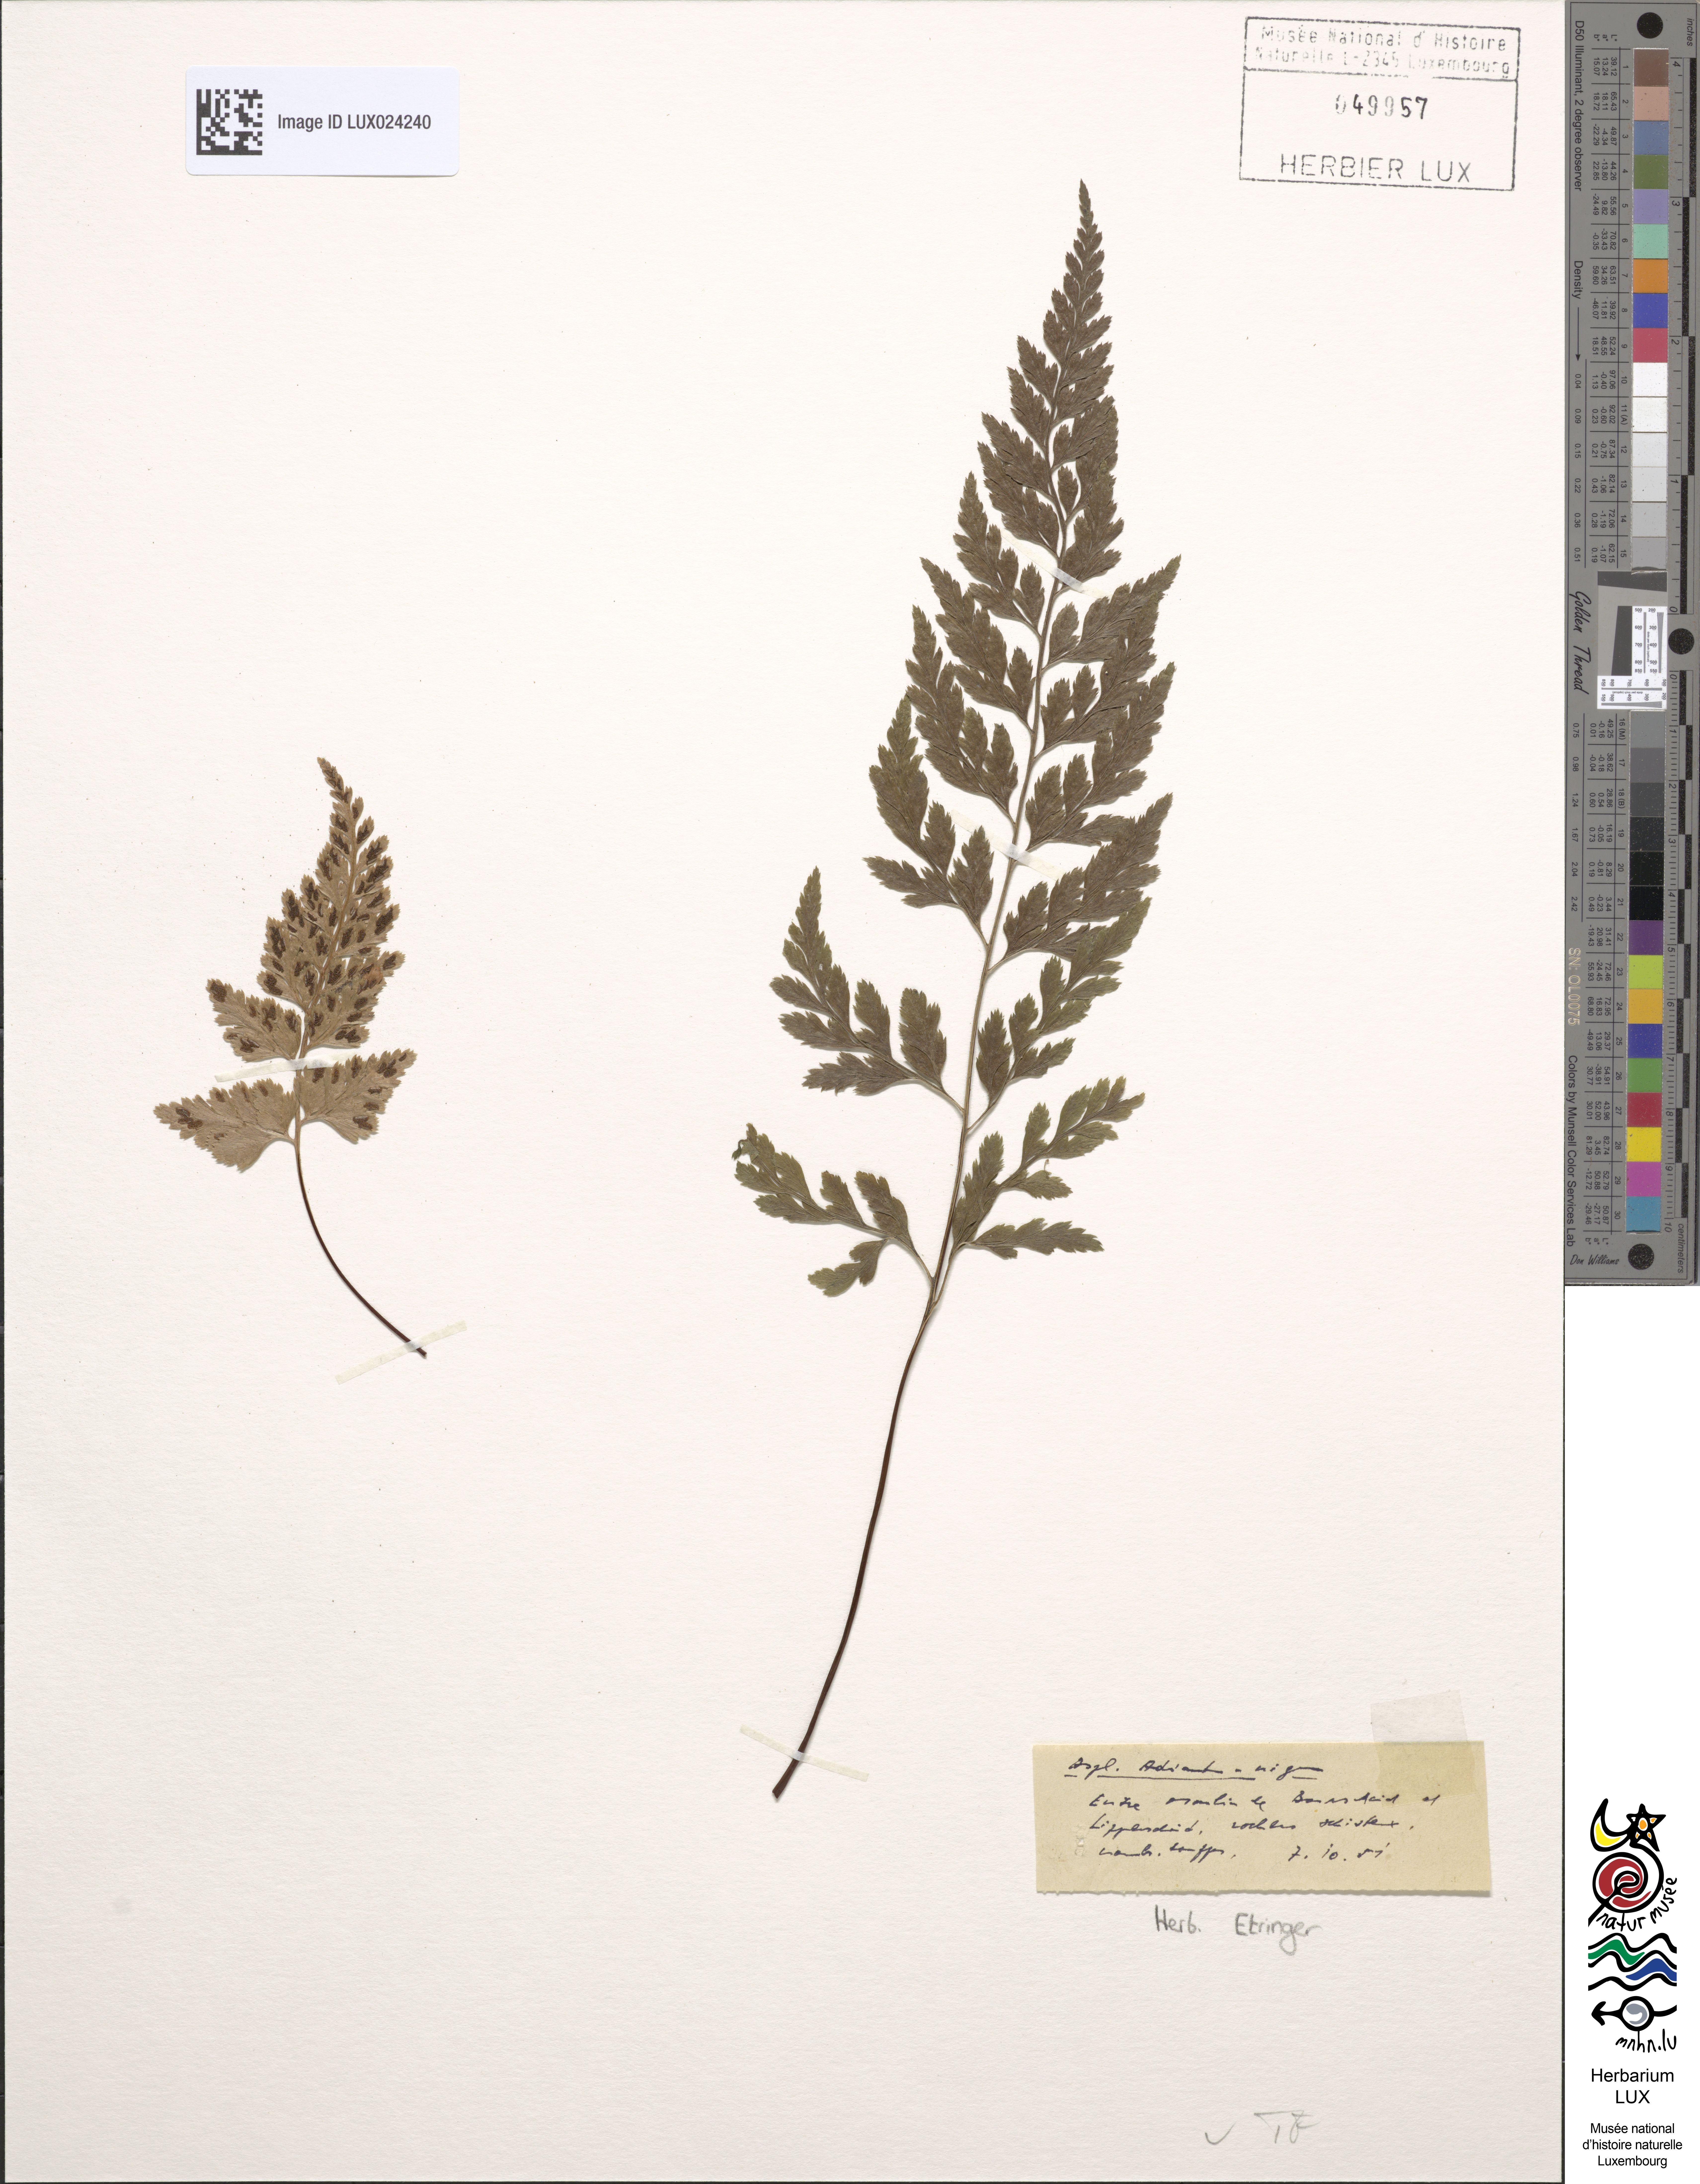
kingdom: Plantae
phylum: Tracheophyta
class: Polypodiopsida
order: Polypodiales
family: Aspleniaceae
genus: Asplenium
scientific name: Asplenium adiantum-nigrum
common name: Black spleenwort
